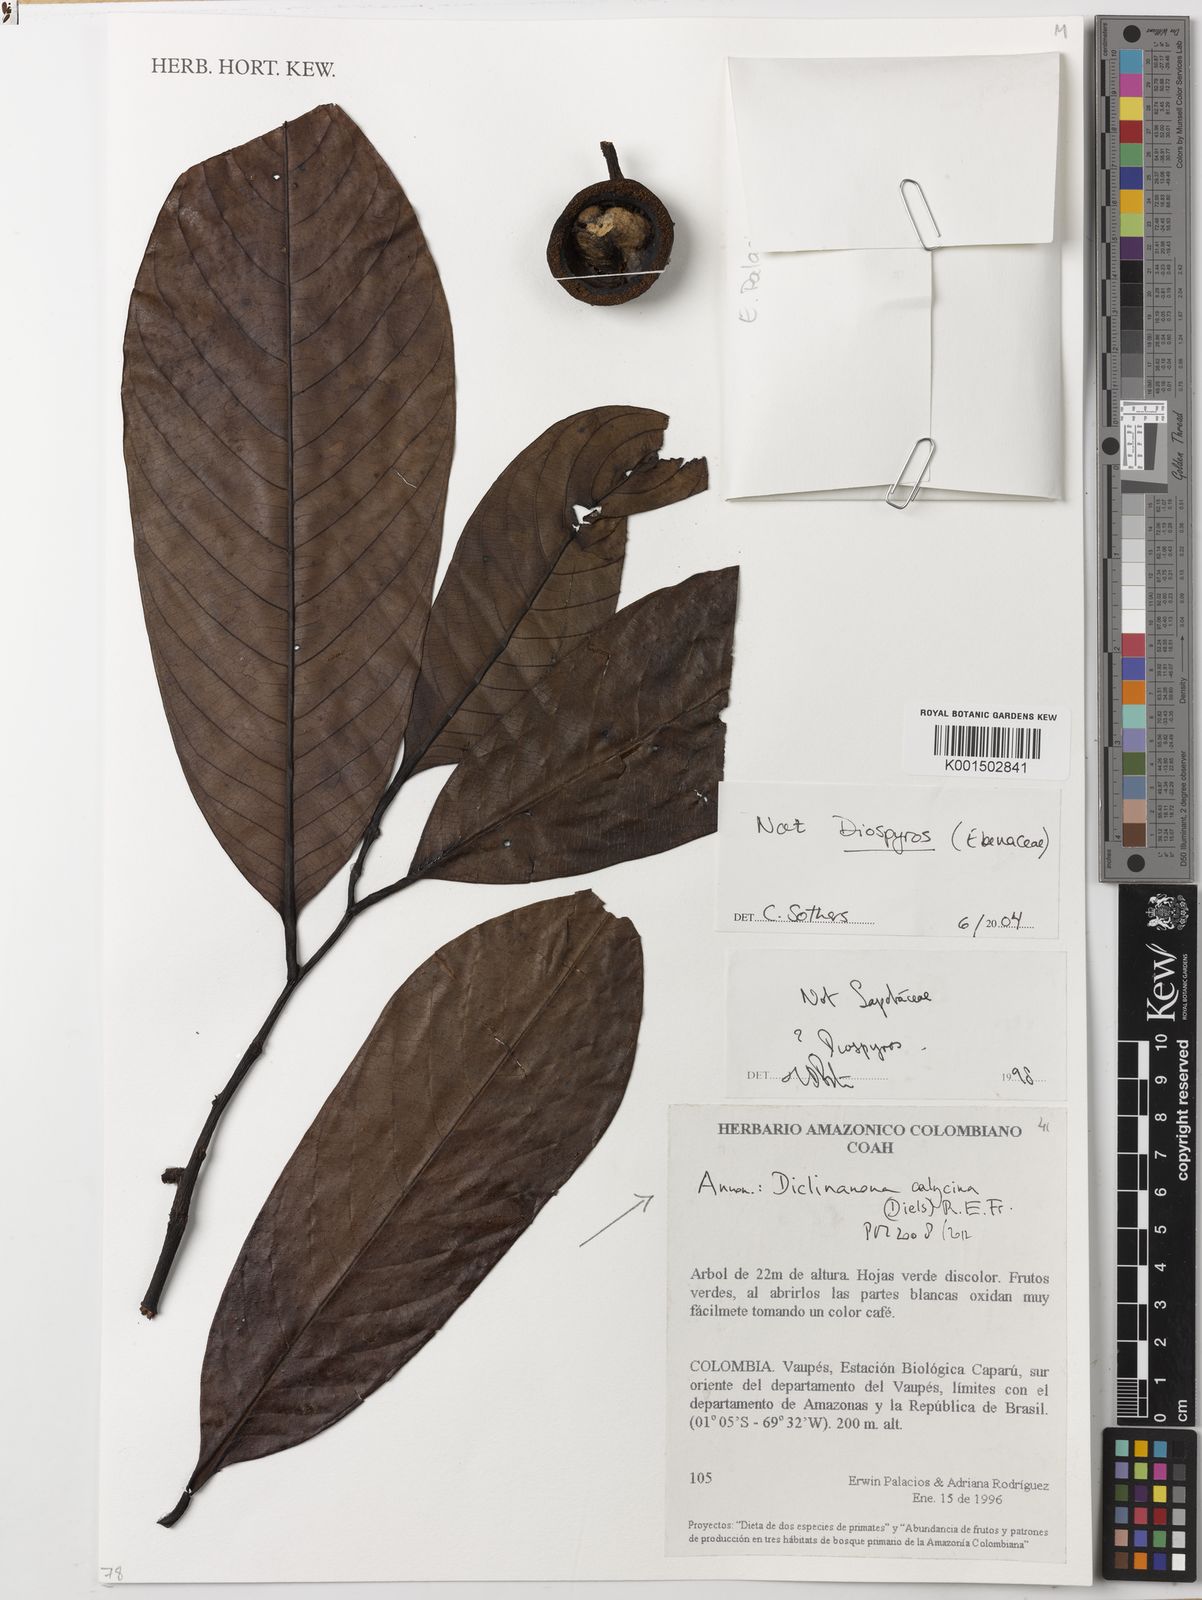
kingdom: Plantae
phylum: Tracheophyta
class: Magnoliopsida
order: Magnoliales
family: Annonaceae
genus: Diclinanona
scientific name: Diclinanona calycina
